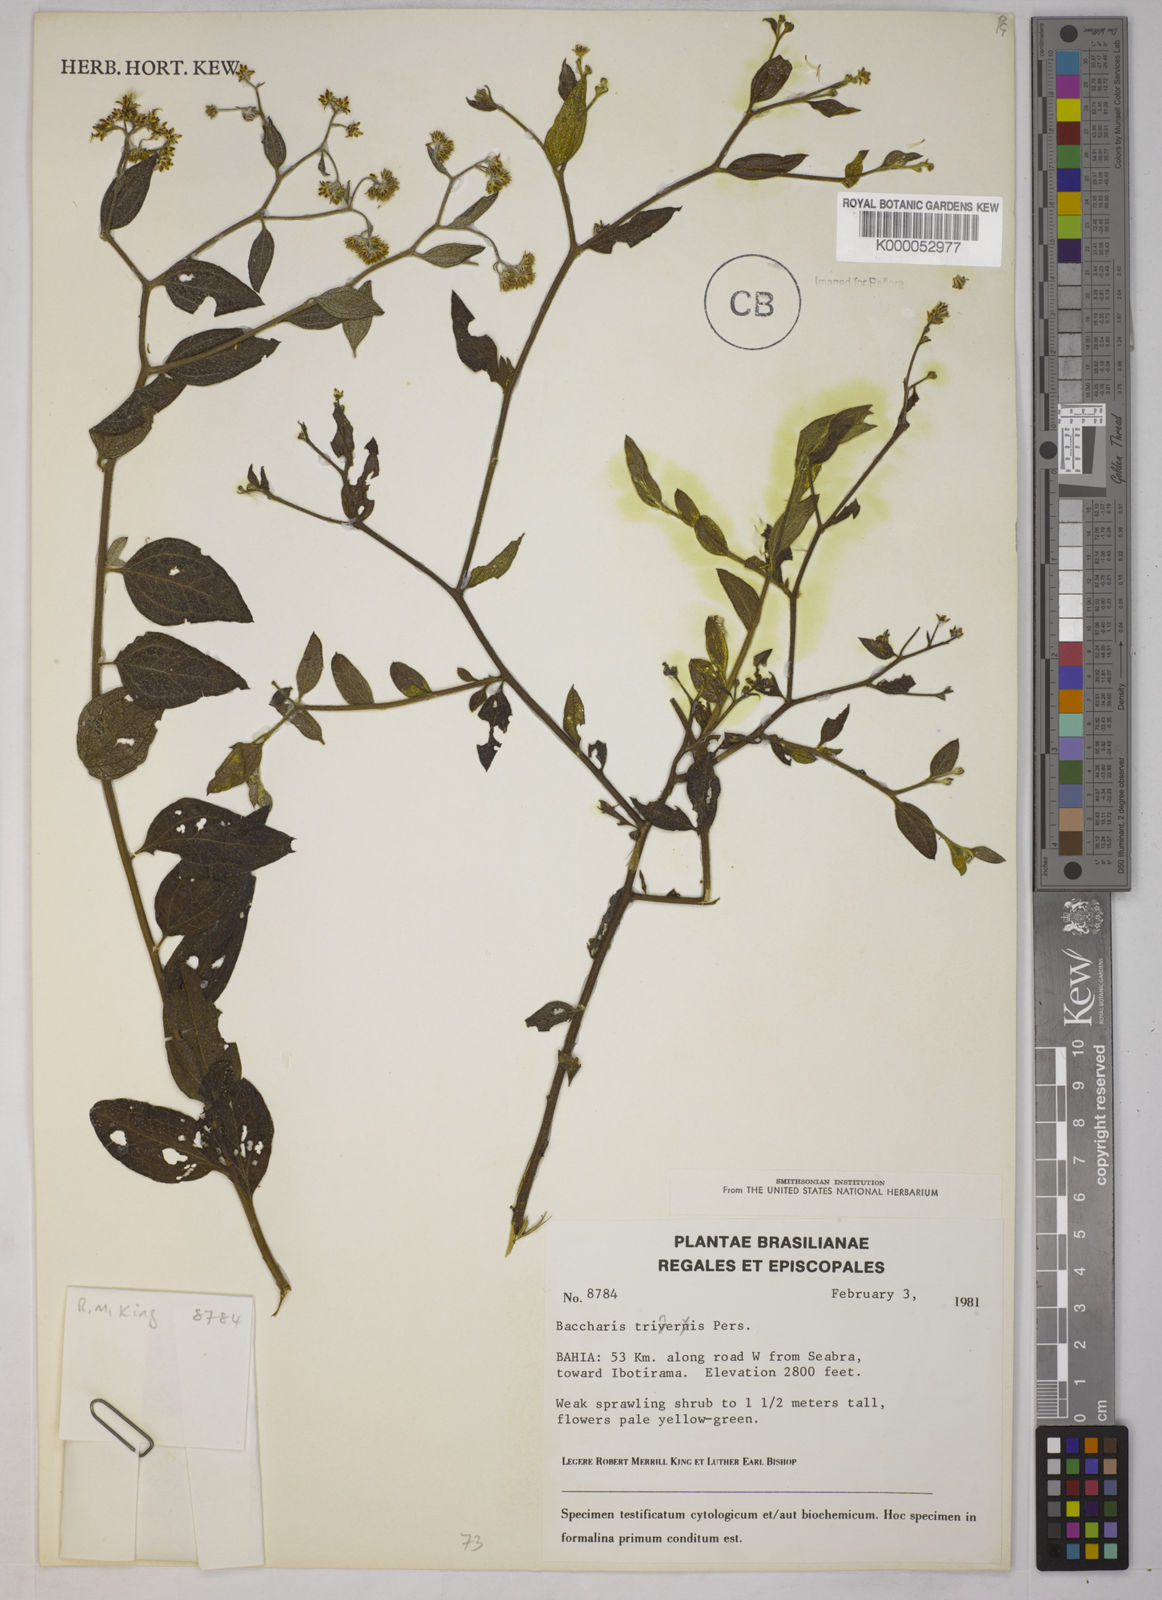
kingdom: Plantae
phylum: Tracheophyta
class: Magnoliopsida
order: Asterales
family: Asteraceae
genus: Baccharis
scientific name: Baccharis trinervis
